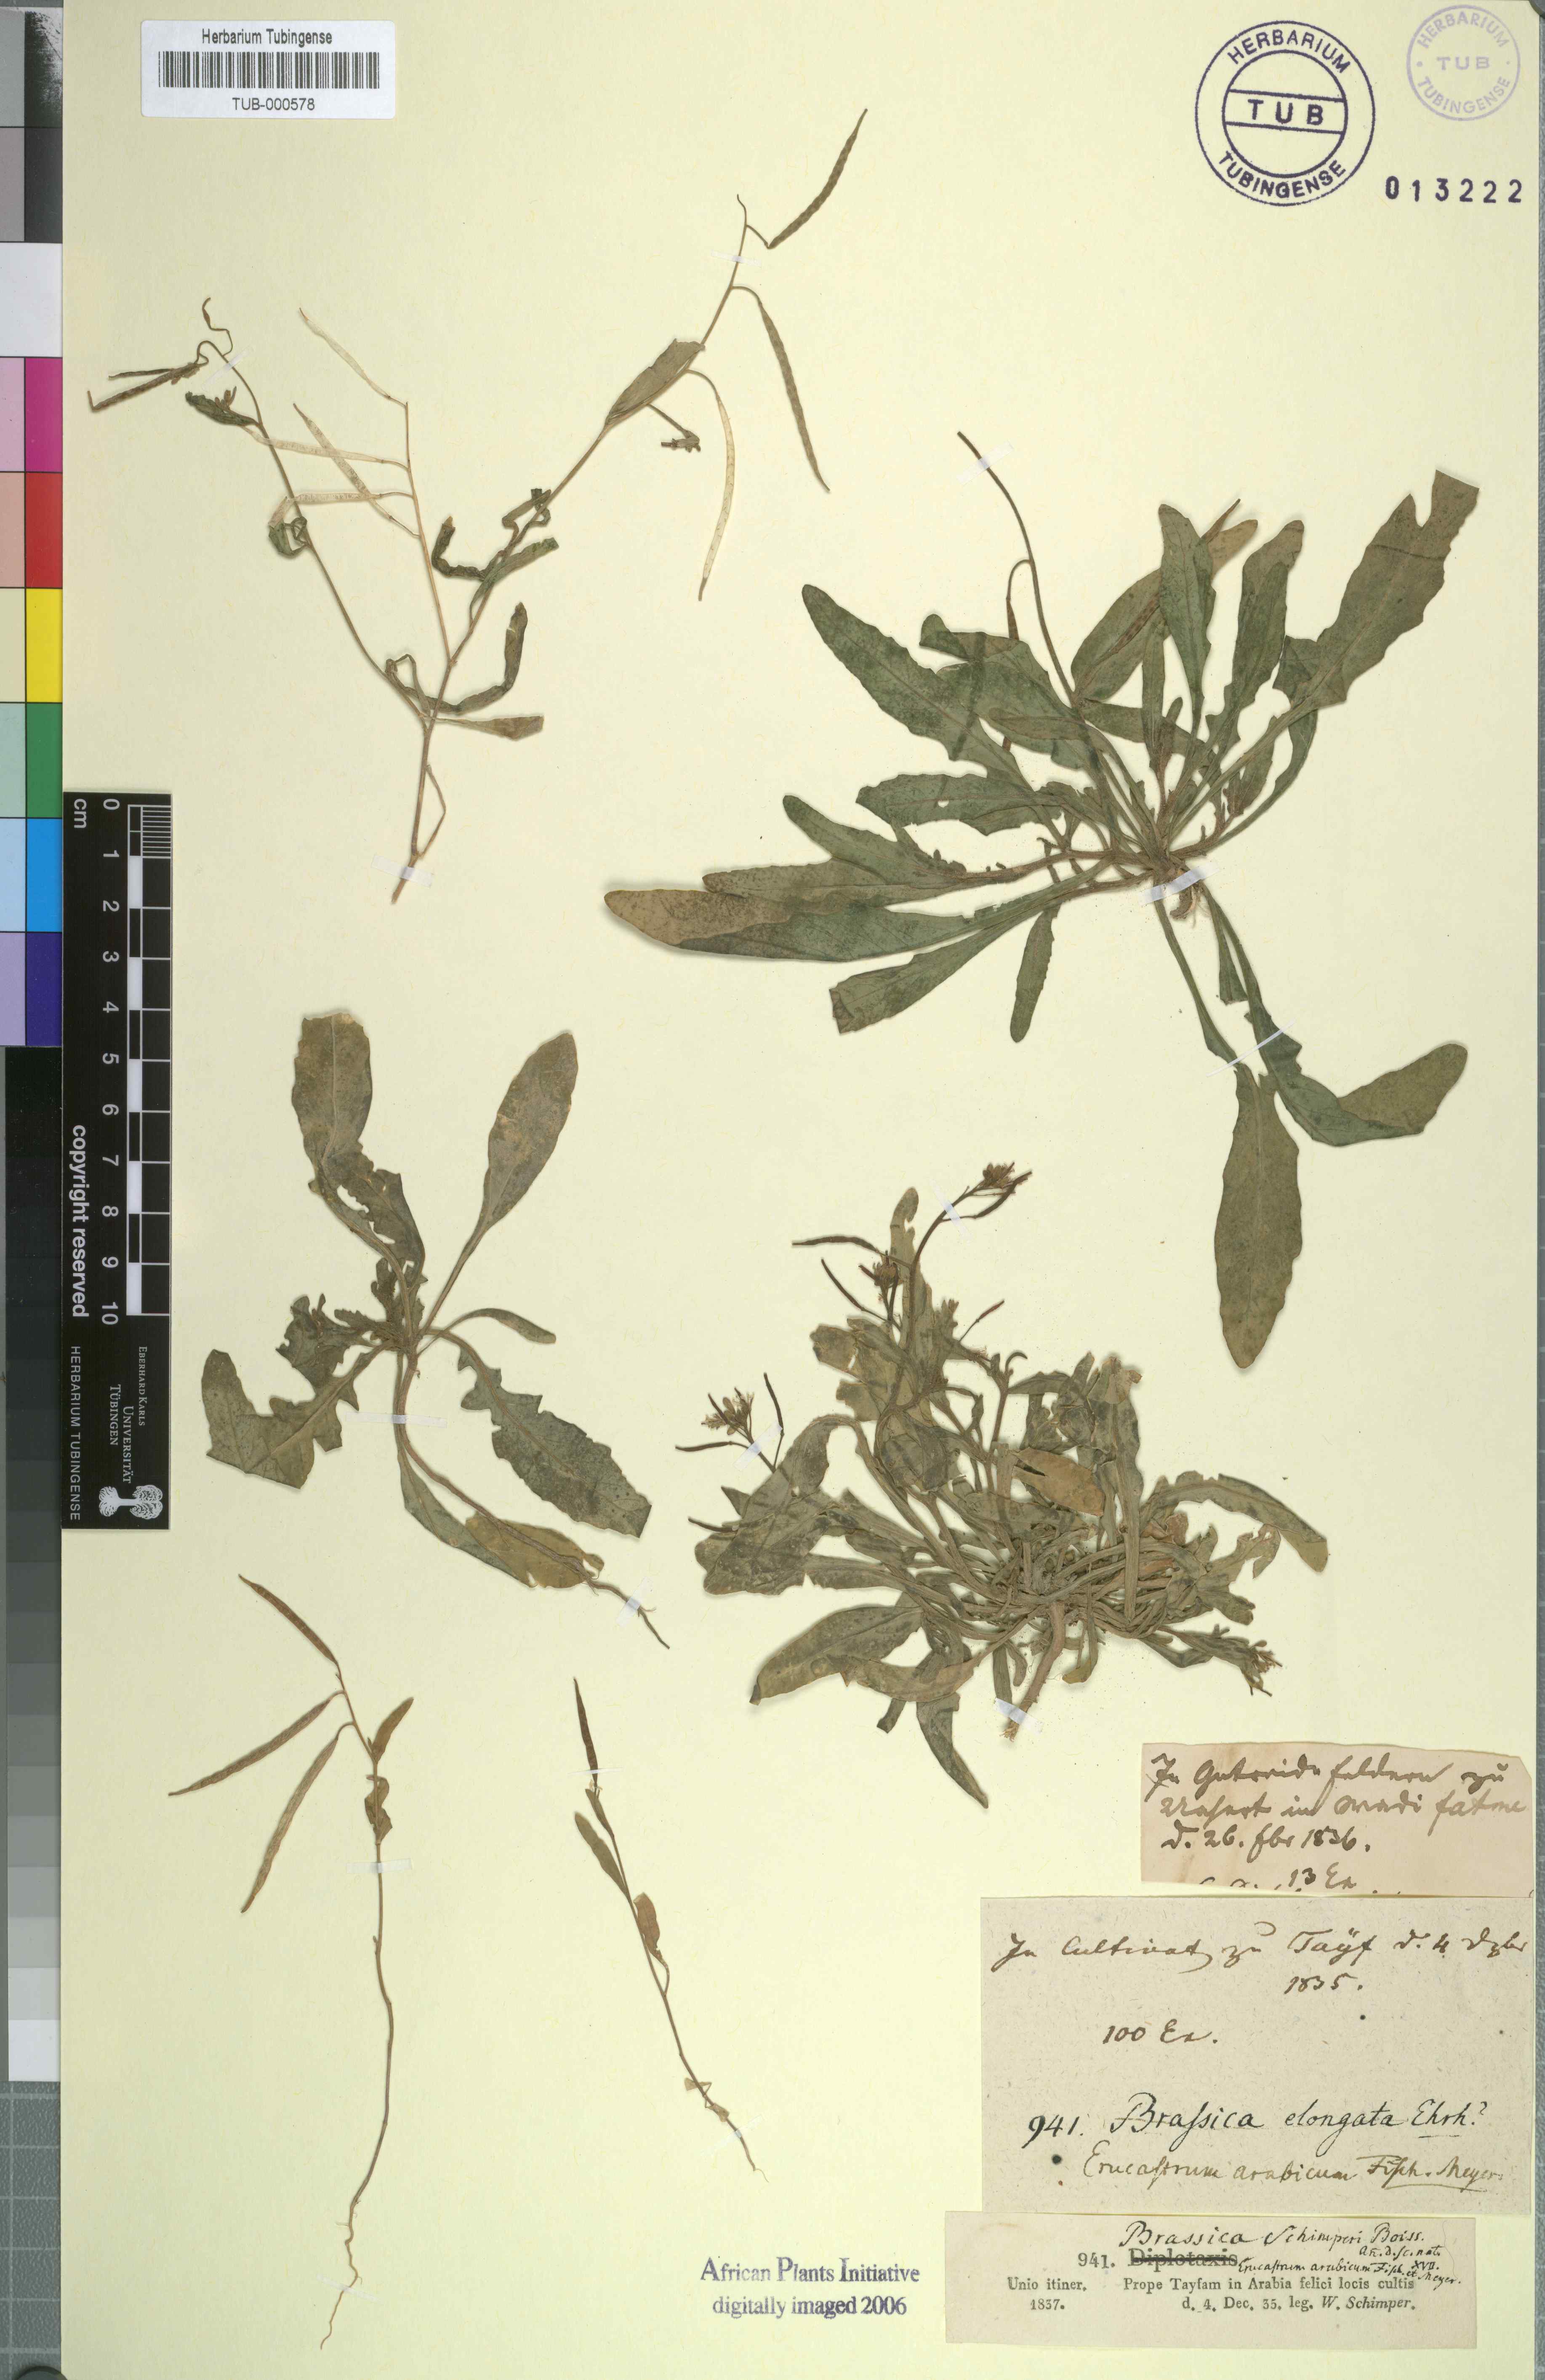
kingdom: Plantae
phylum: Tracheophyta
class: Magnoliopsida
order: Brassicales
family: Brassicaceae
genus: Erucastrum
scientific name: Erucastrum arabicum
